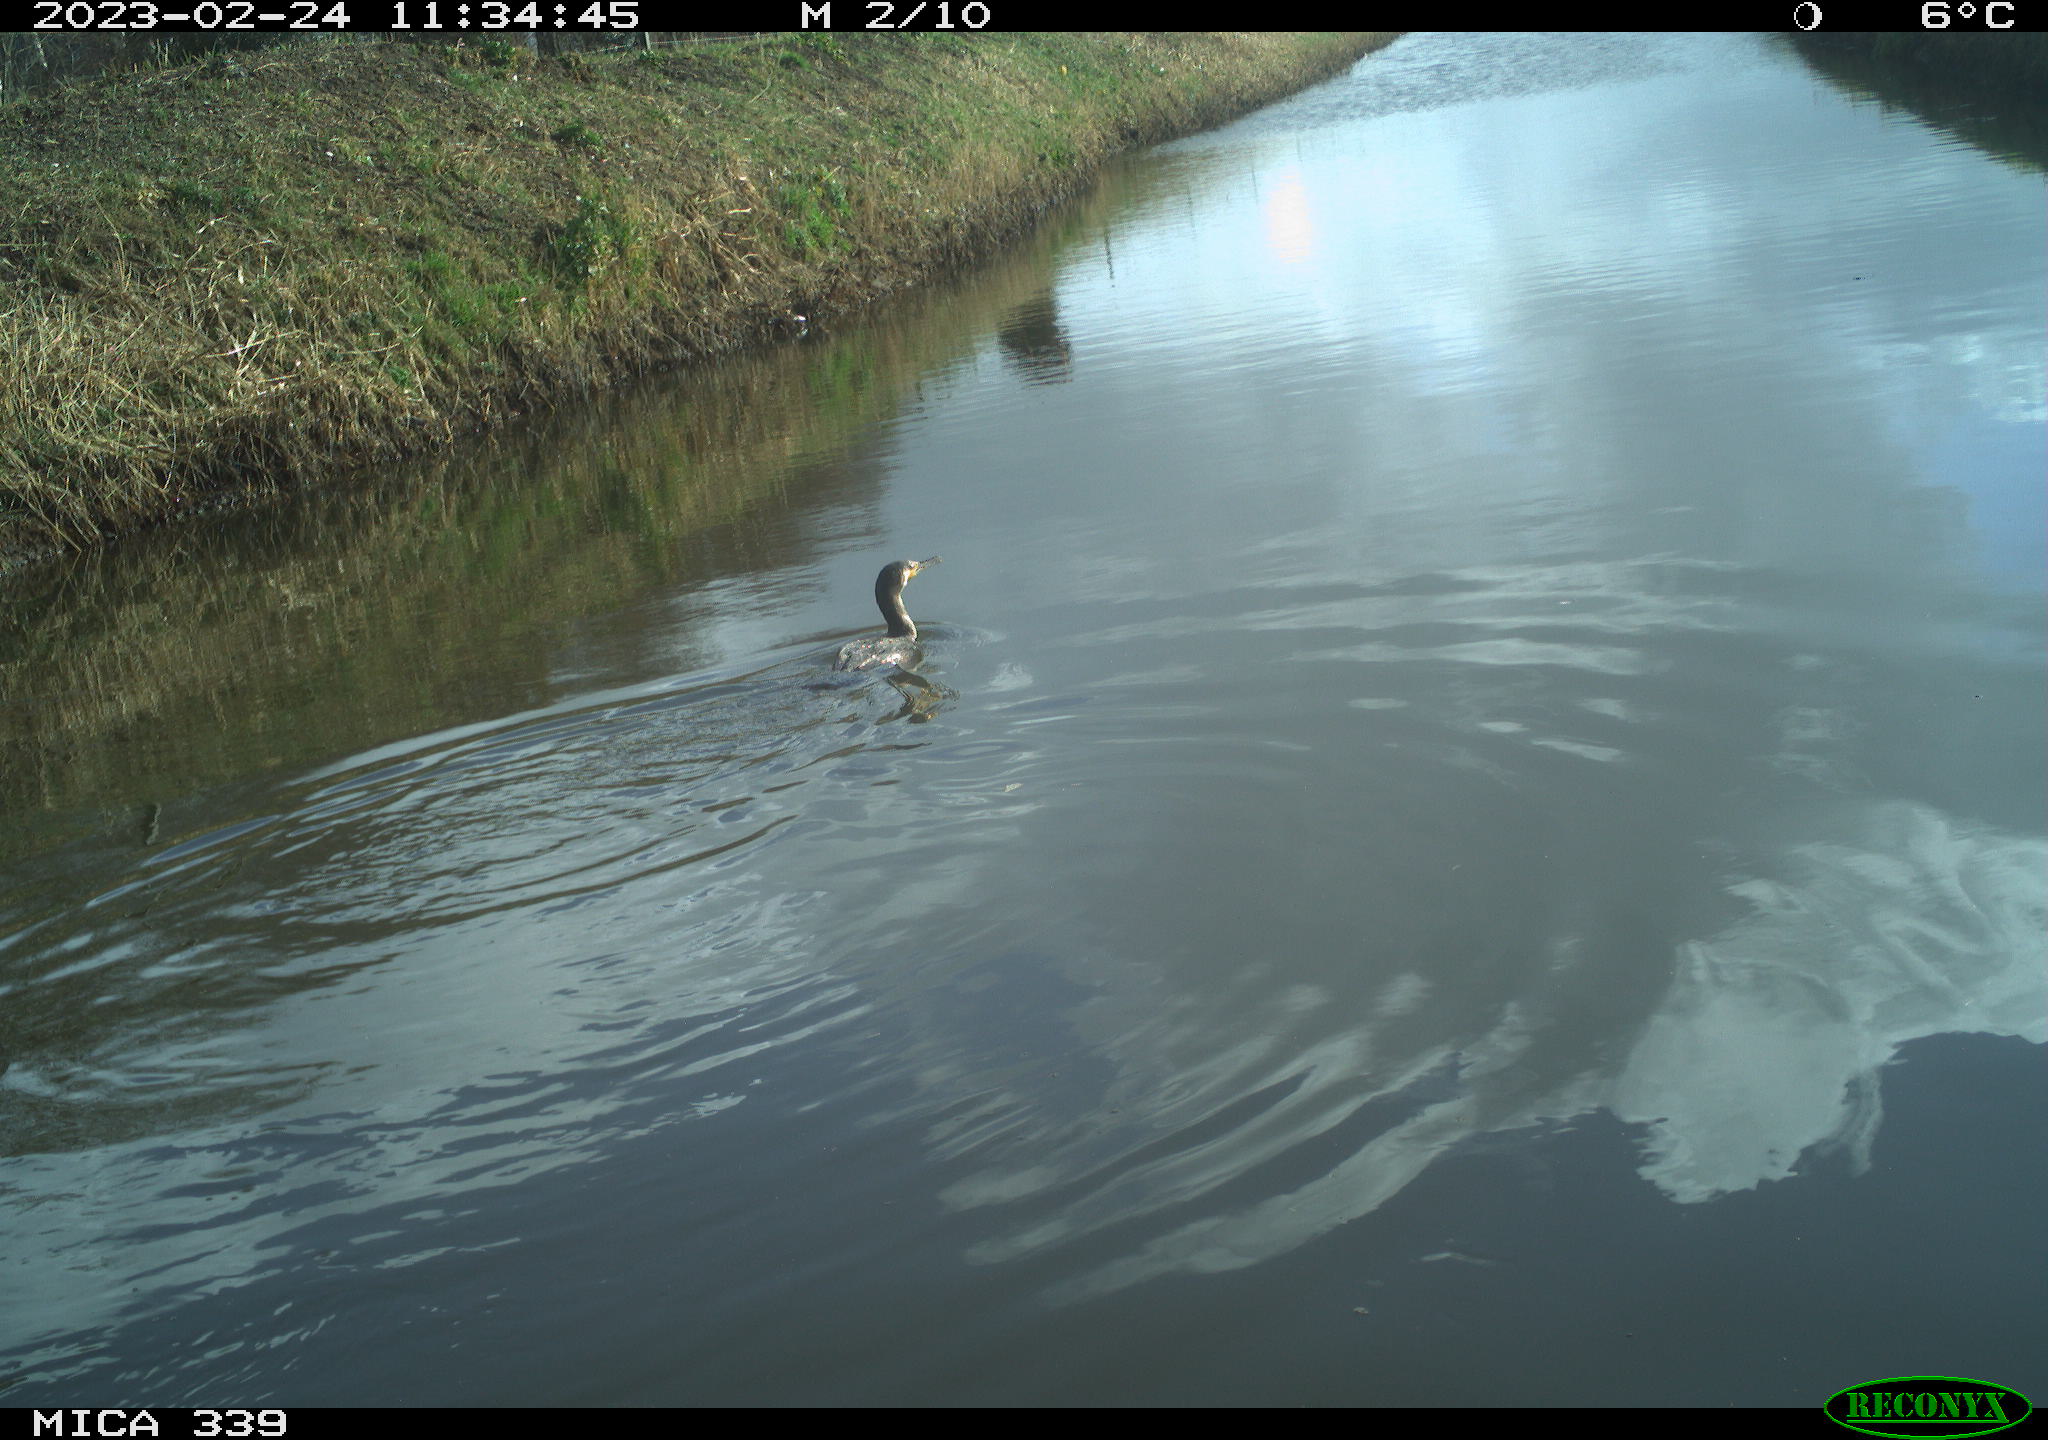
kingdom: Animalia
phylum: Chordata
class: Aves
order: Suliformes
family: Phalacrocoracidae
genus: Phalacrocorax
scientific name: Phalacrocorax carbo
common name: Great cormorant
